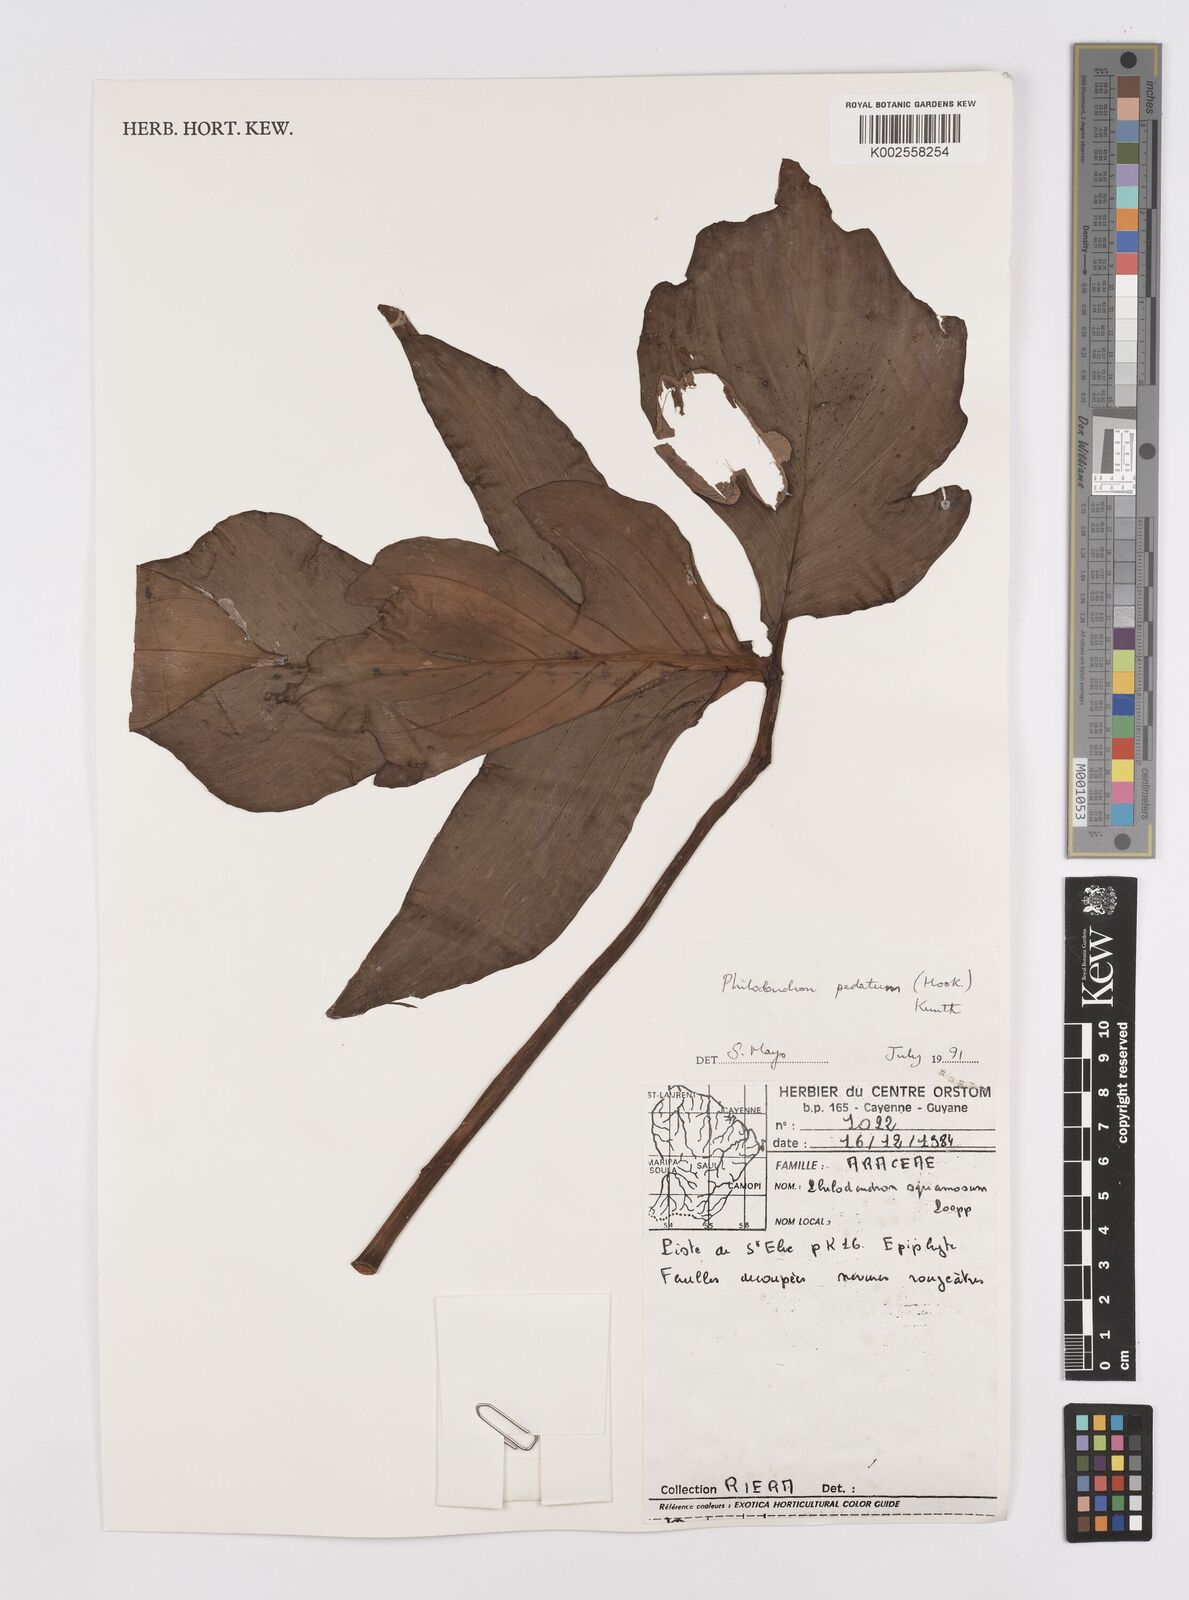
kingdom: Plantae
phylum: Tracheophyta
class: Liliopsida
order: Alismatales
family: Araceae
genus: Philodendron
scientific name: Philodendron pedatum
